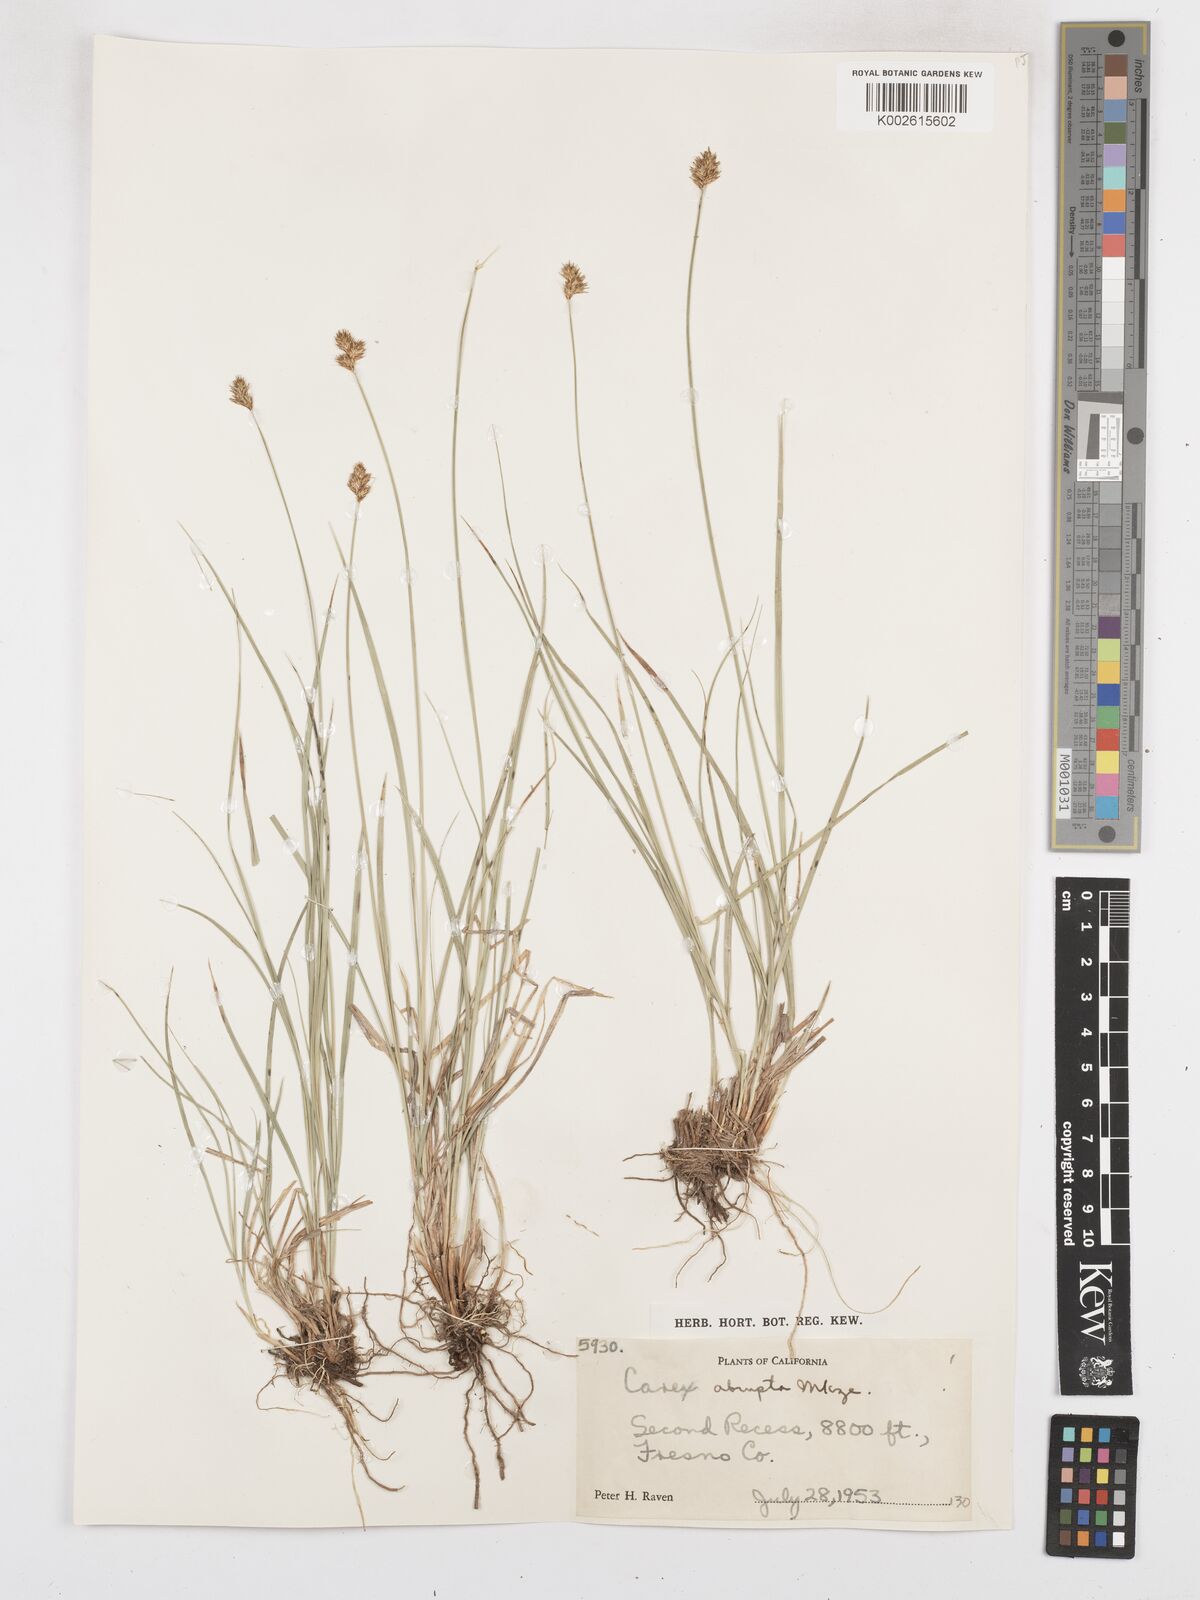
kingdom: Plantae
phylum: Tracheophyta
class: Liliopsida
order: Poales
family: Cyperaceae
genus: Carex
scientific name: Carex abrupta
